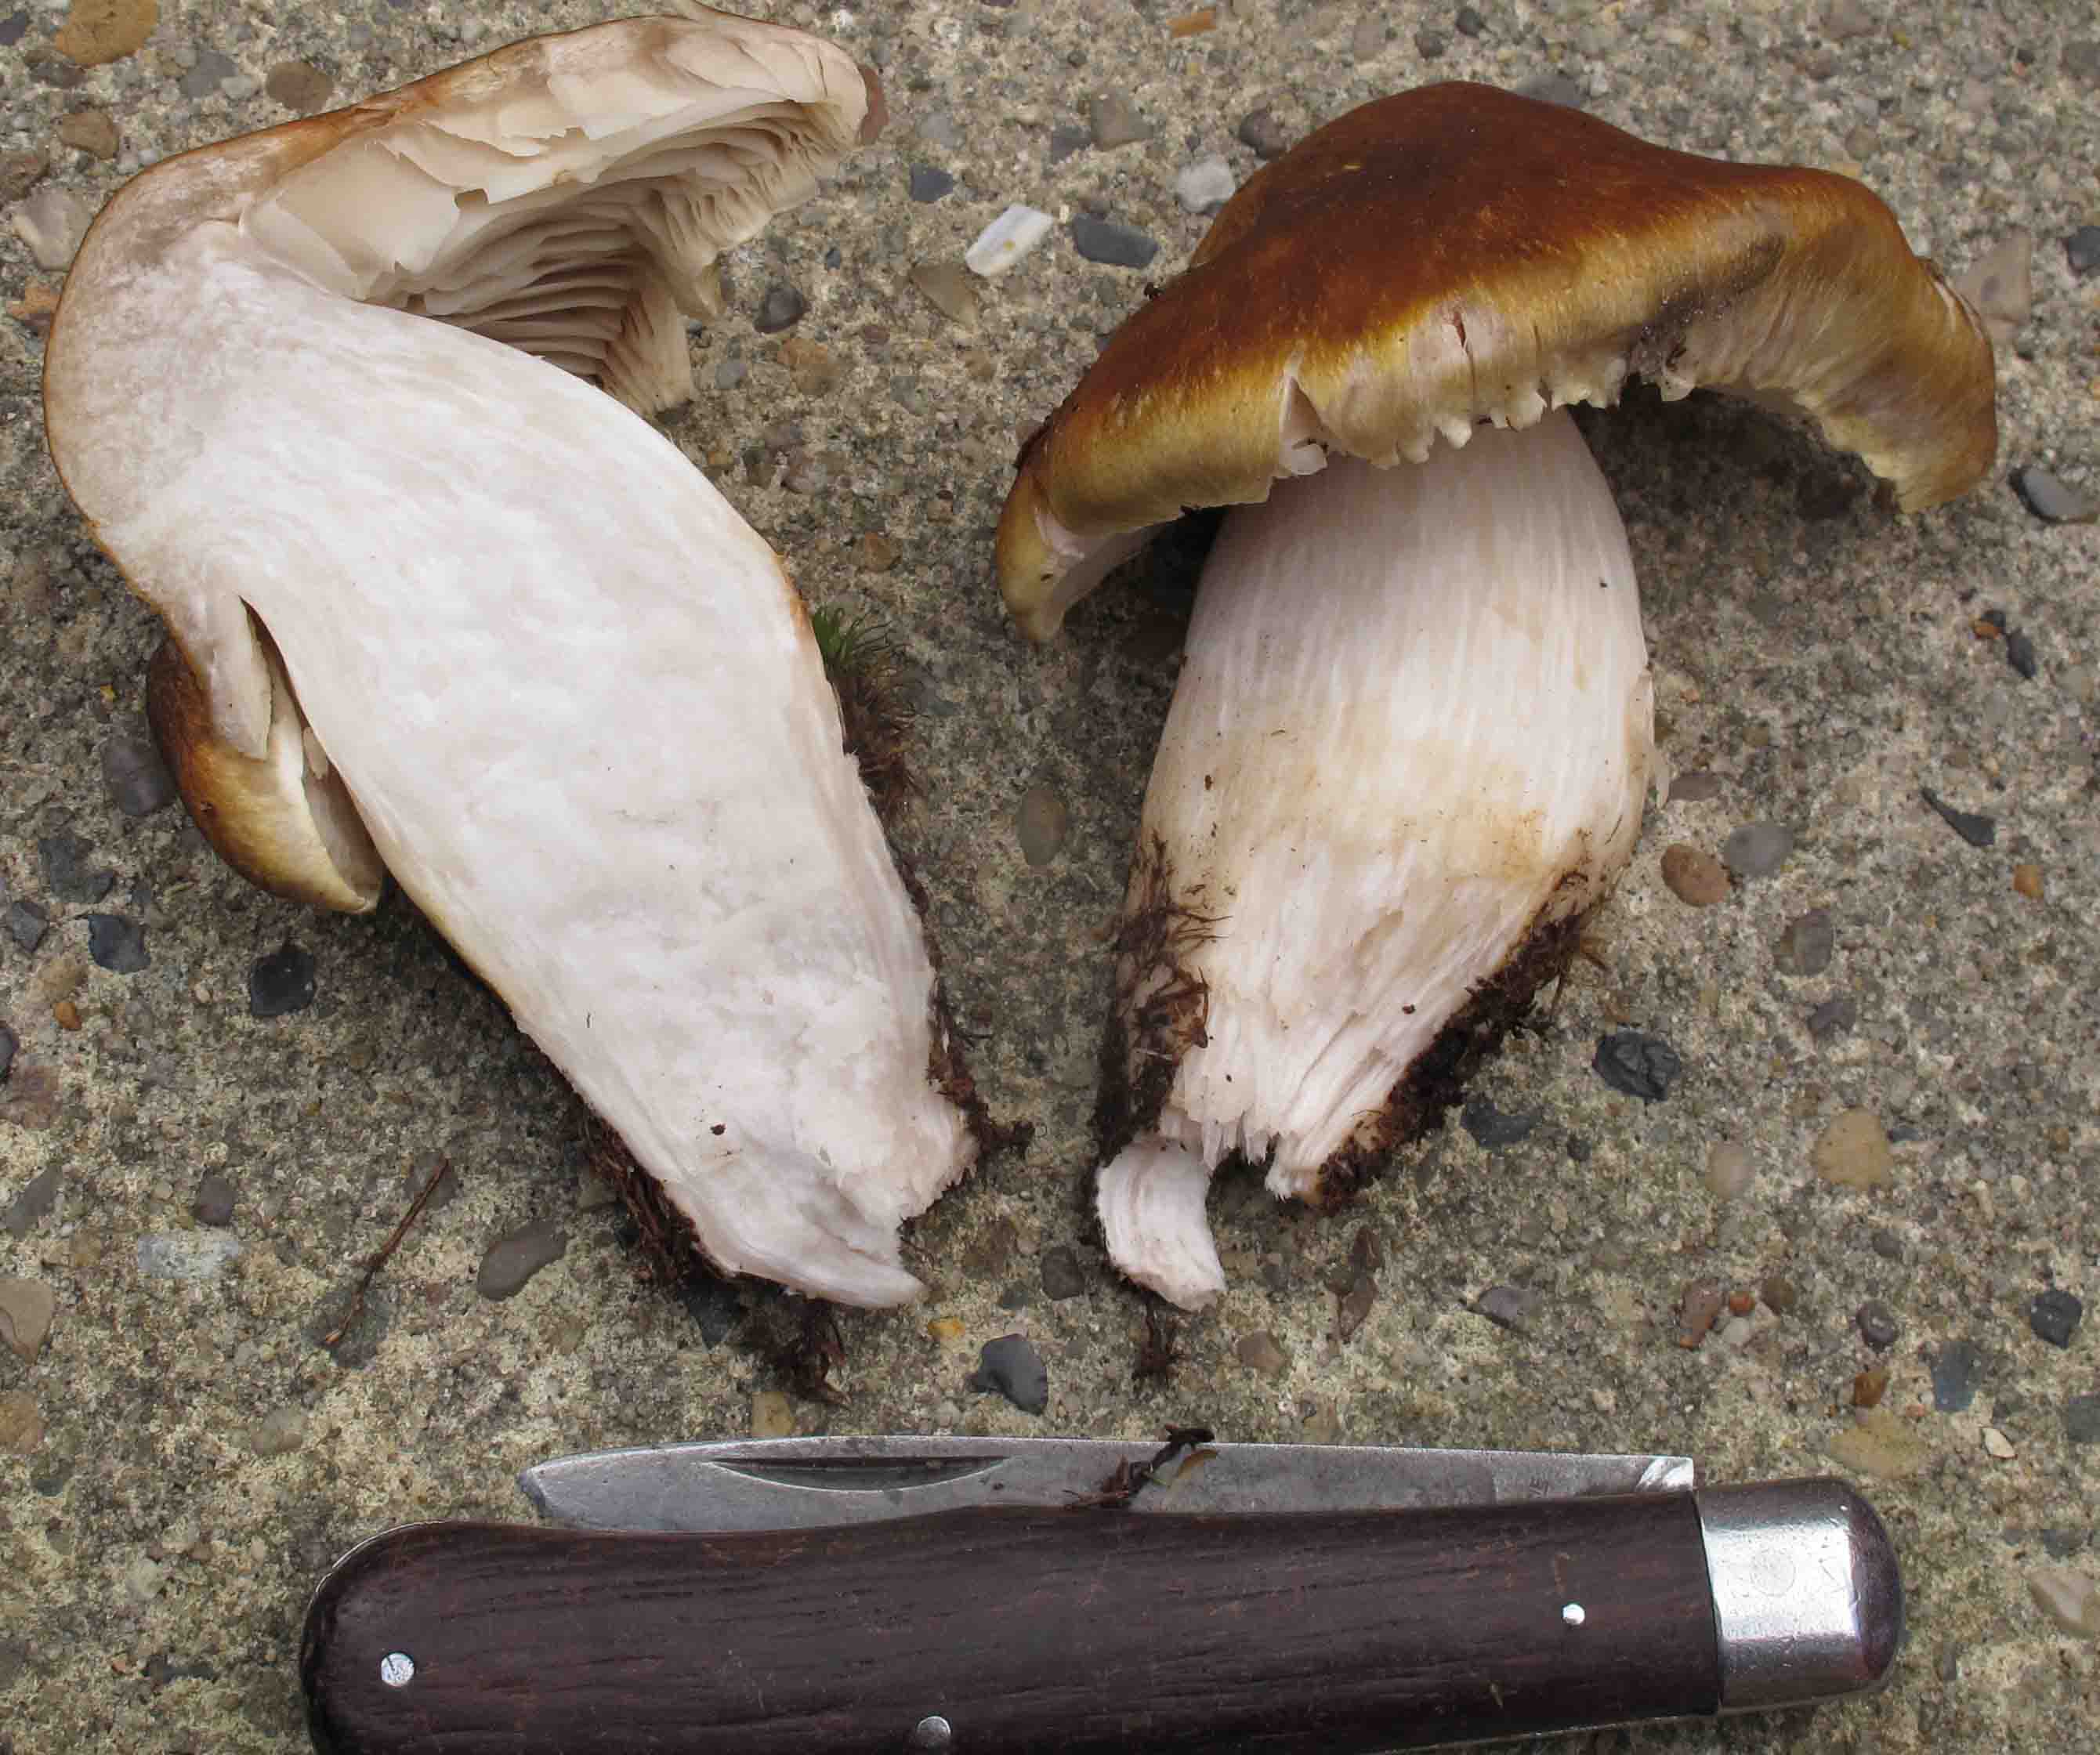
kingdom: Fungi
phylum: Basidiomycota
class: Agaricomycetes
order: Agaricales
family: Tricholomataceae
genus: Tricholoma
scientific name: Tricholoma arvernense
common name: kantet ridderhat
